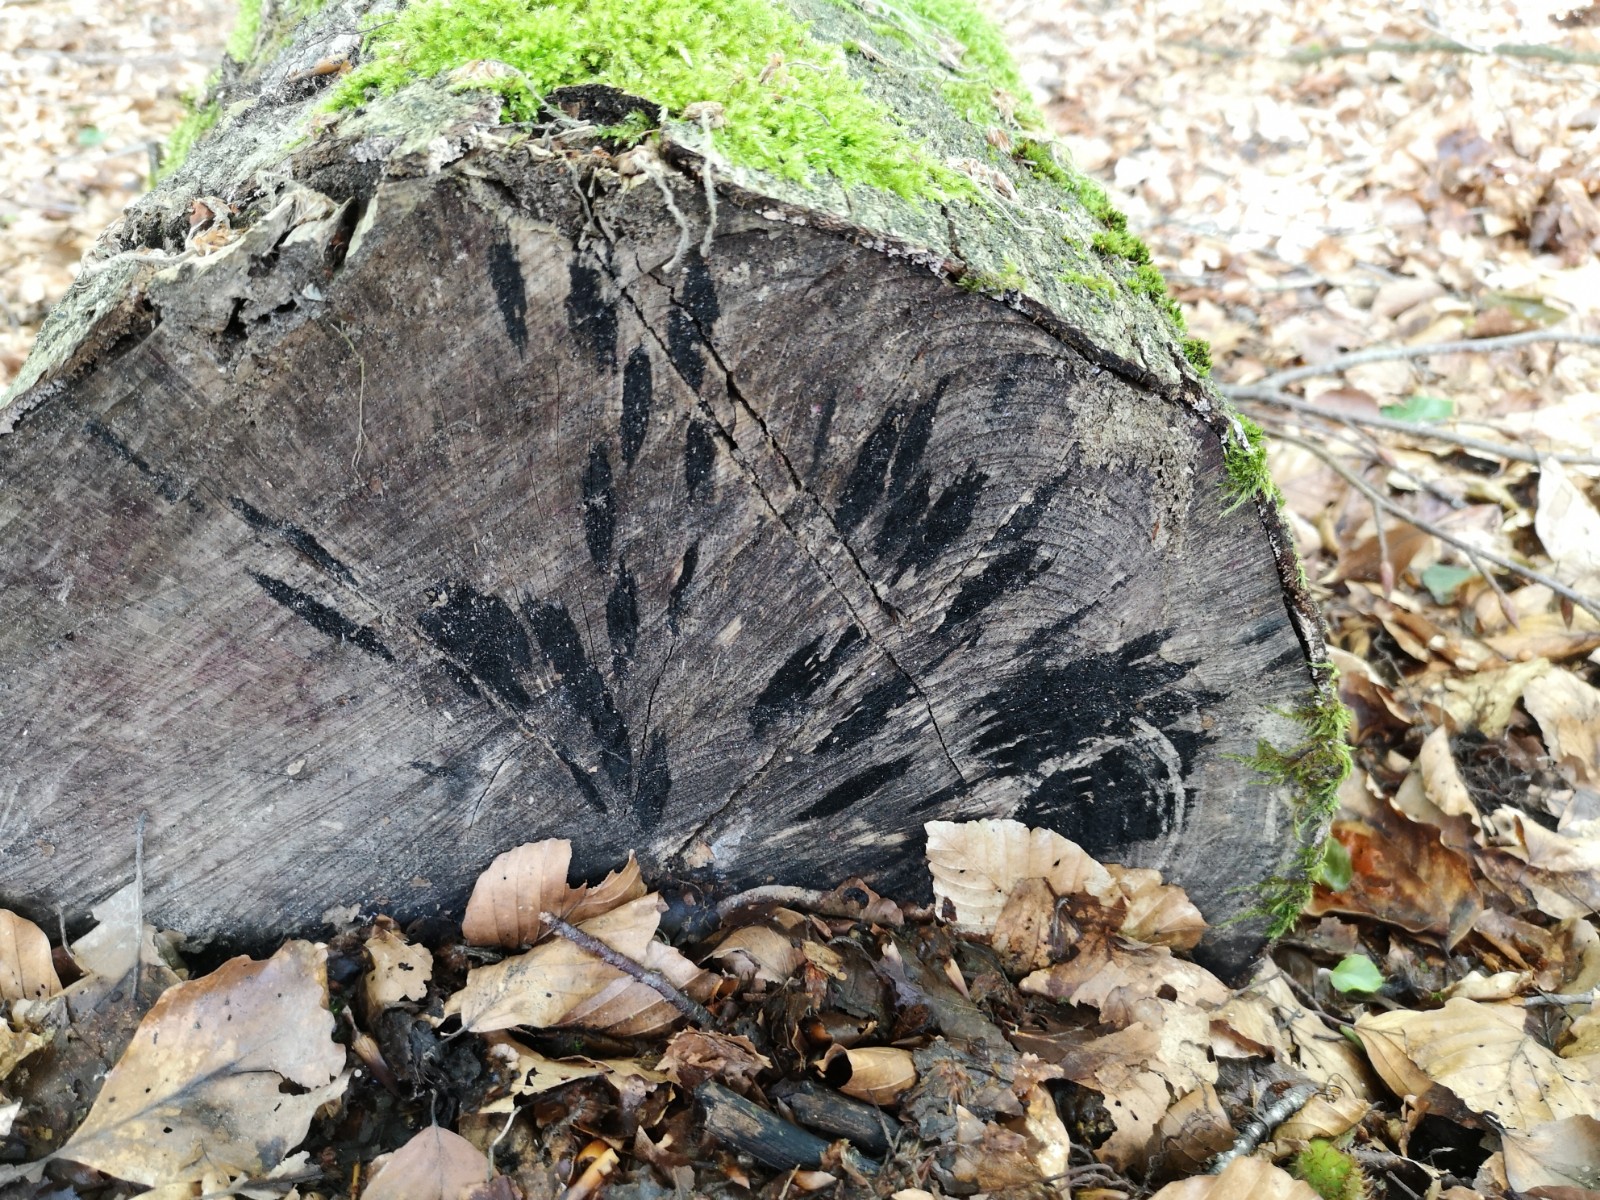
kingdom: Fungi
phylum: Ascomycota
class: Leotiomycetes
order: Helotiales
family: Helotiaceae
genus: Bispora
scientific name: Bispora pallescens
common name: måtte-snitskive
